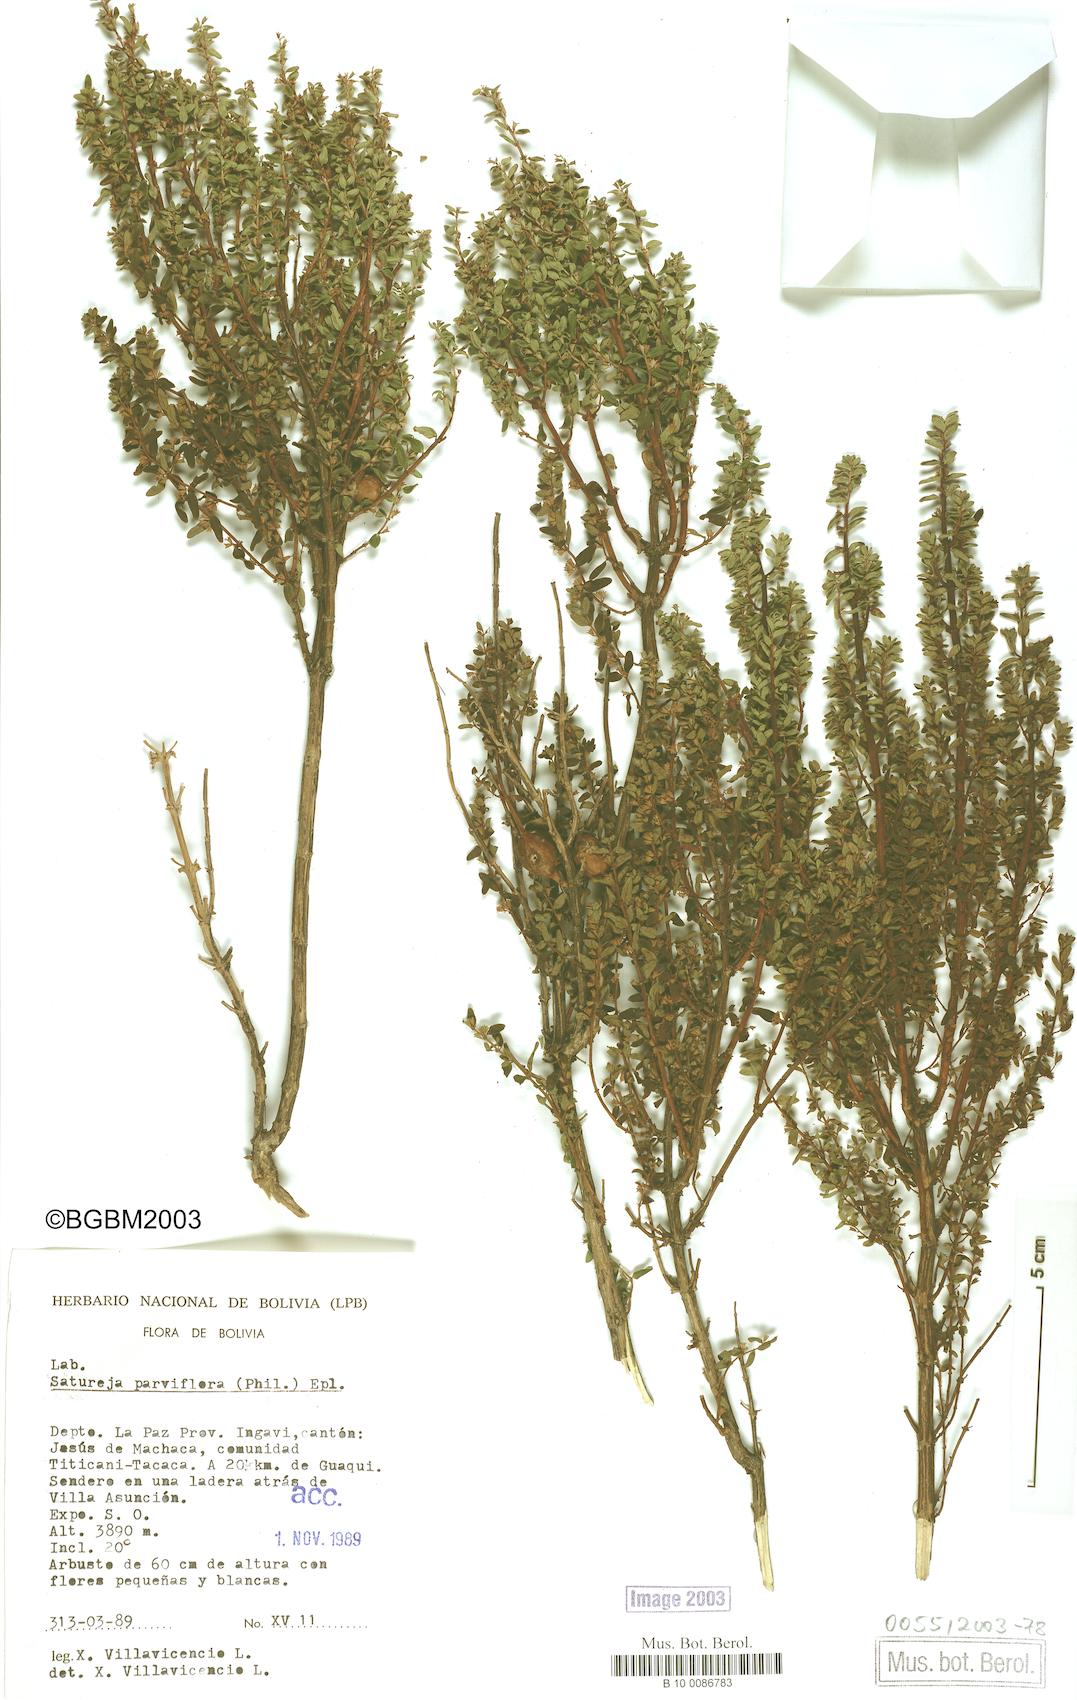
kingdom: Plantae
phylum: Tracheophyta
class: Magnoliopsida
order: Lamiales
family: Lamiaceae
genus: Micromeria
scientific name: Micromeria juliana
